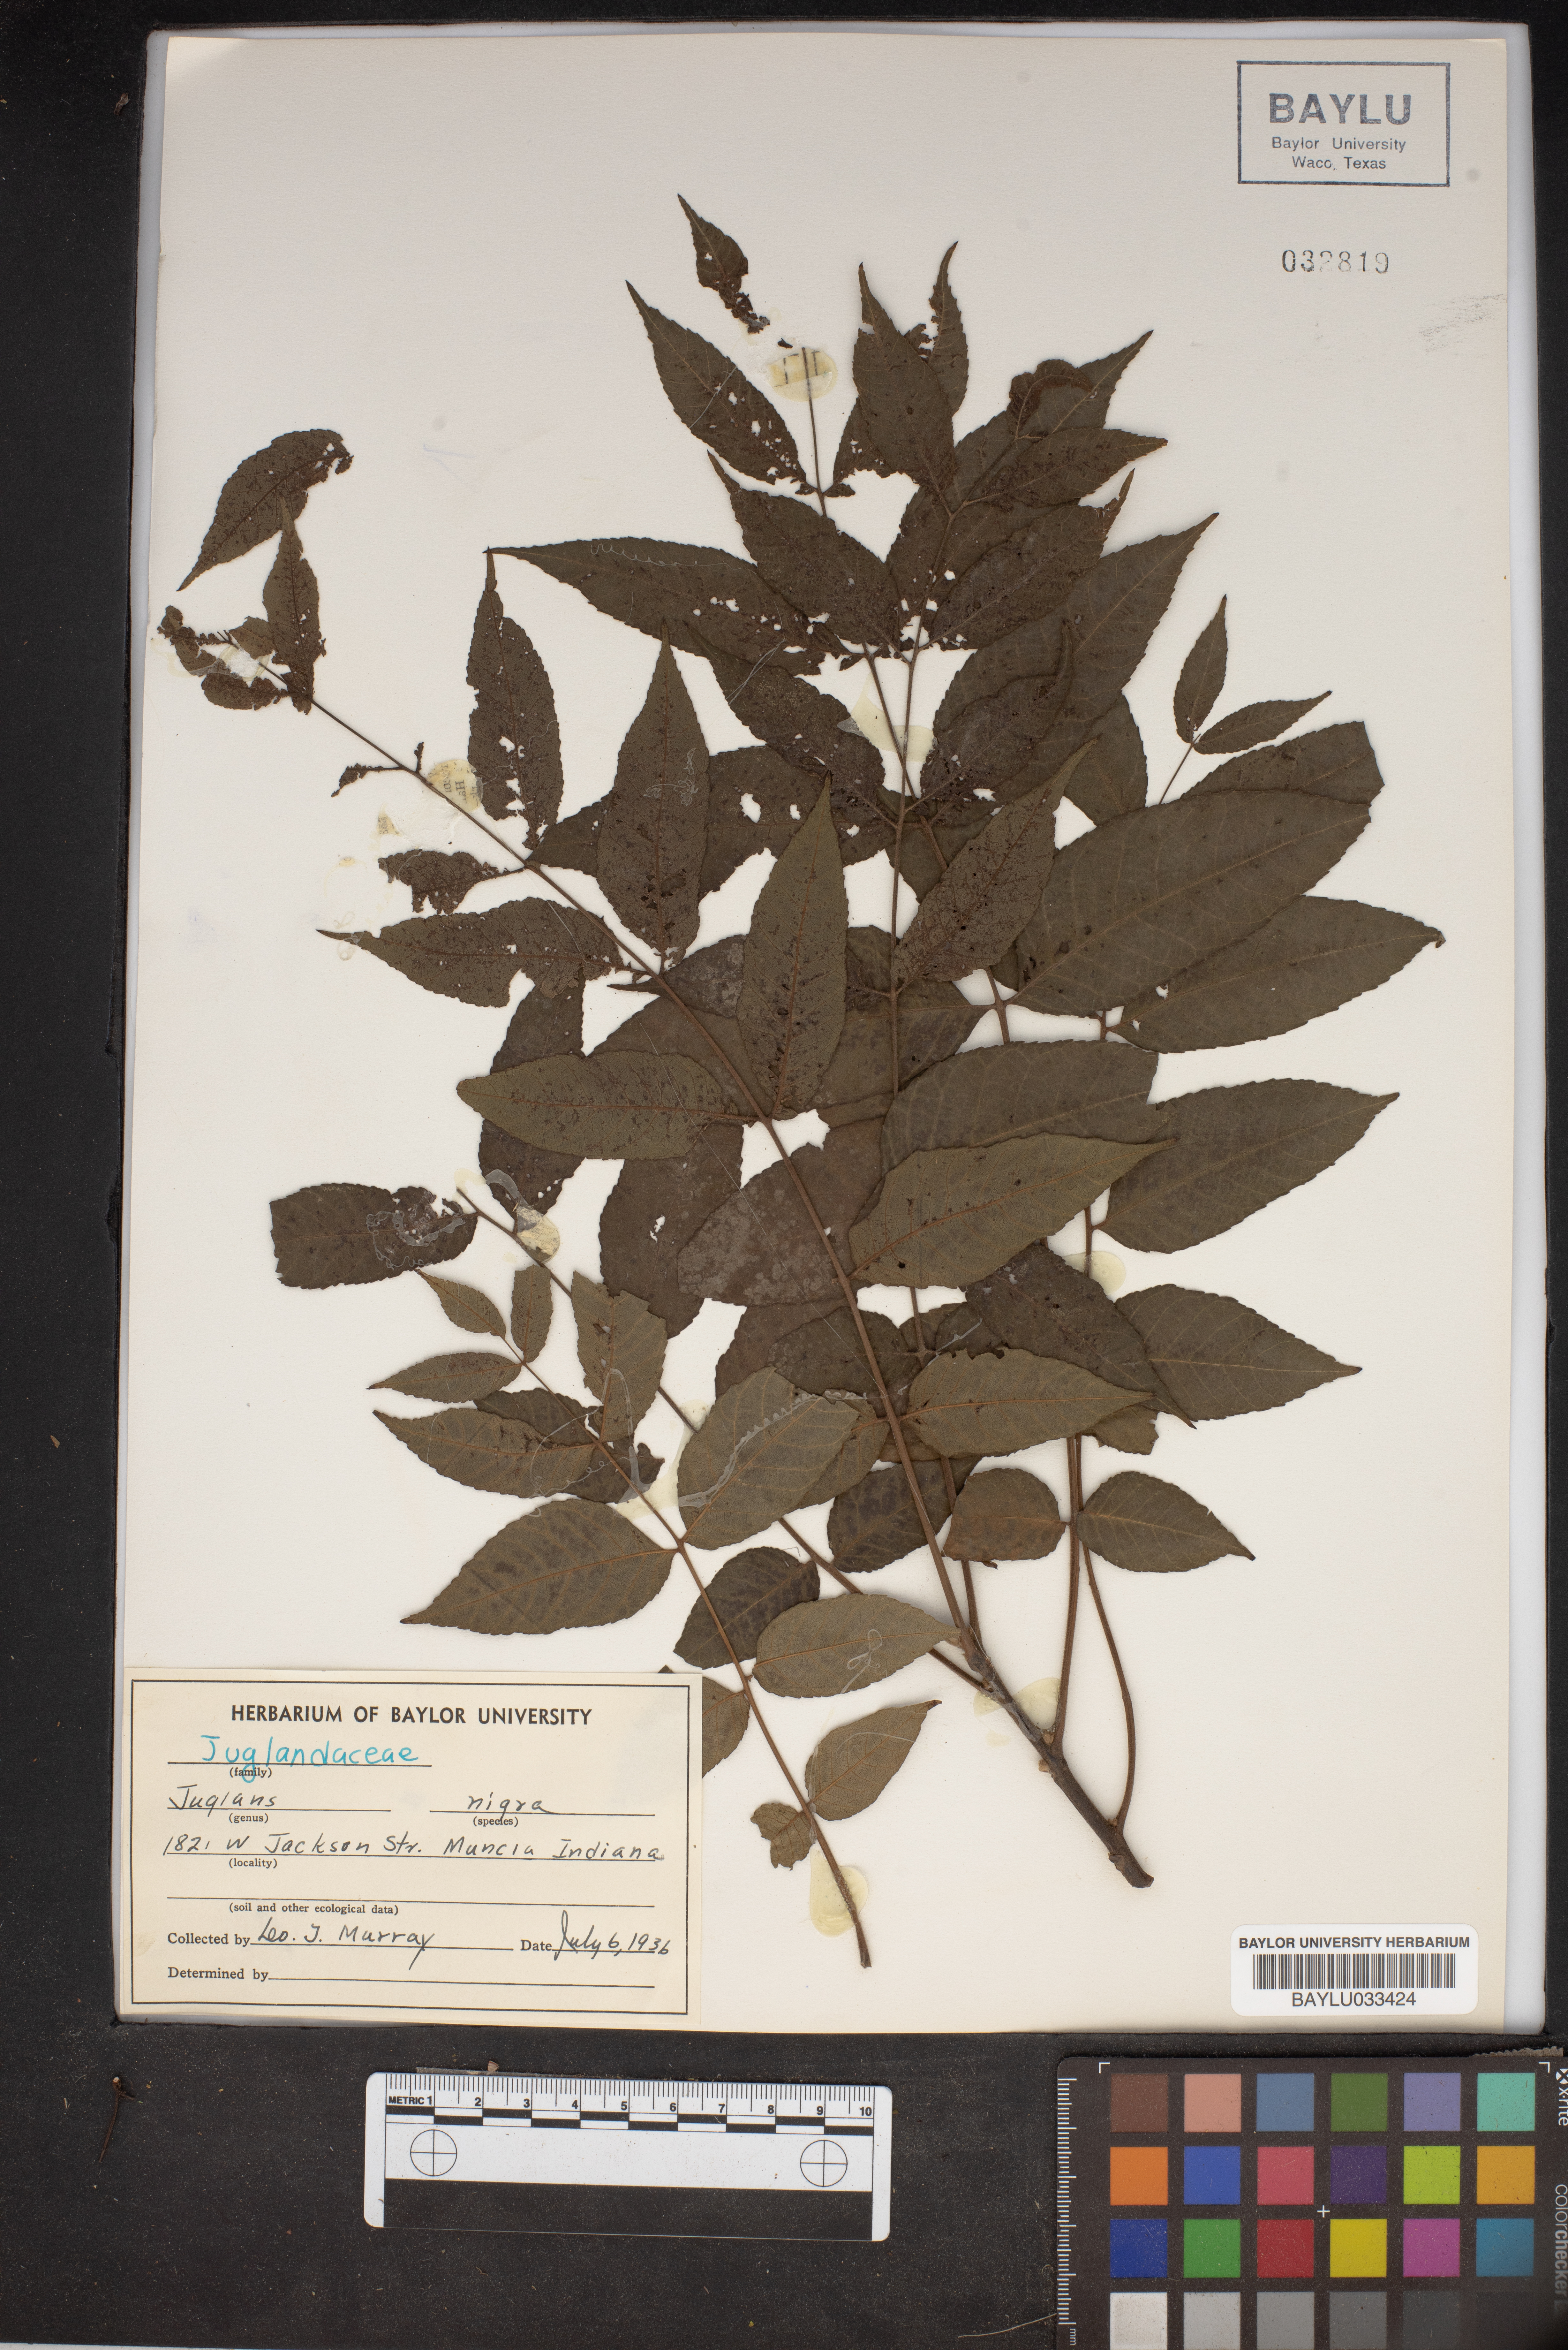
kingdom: Plantae
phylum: Tracheophyta
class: Magnoliopsida
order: Fagales
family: Juglandaceae
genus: Juglans
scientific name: Juglans nigra
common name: Black walnut
